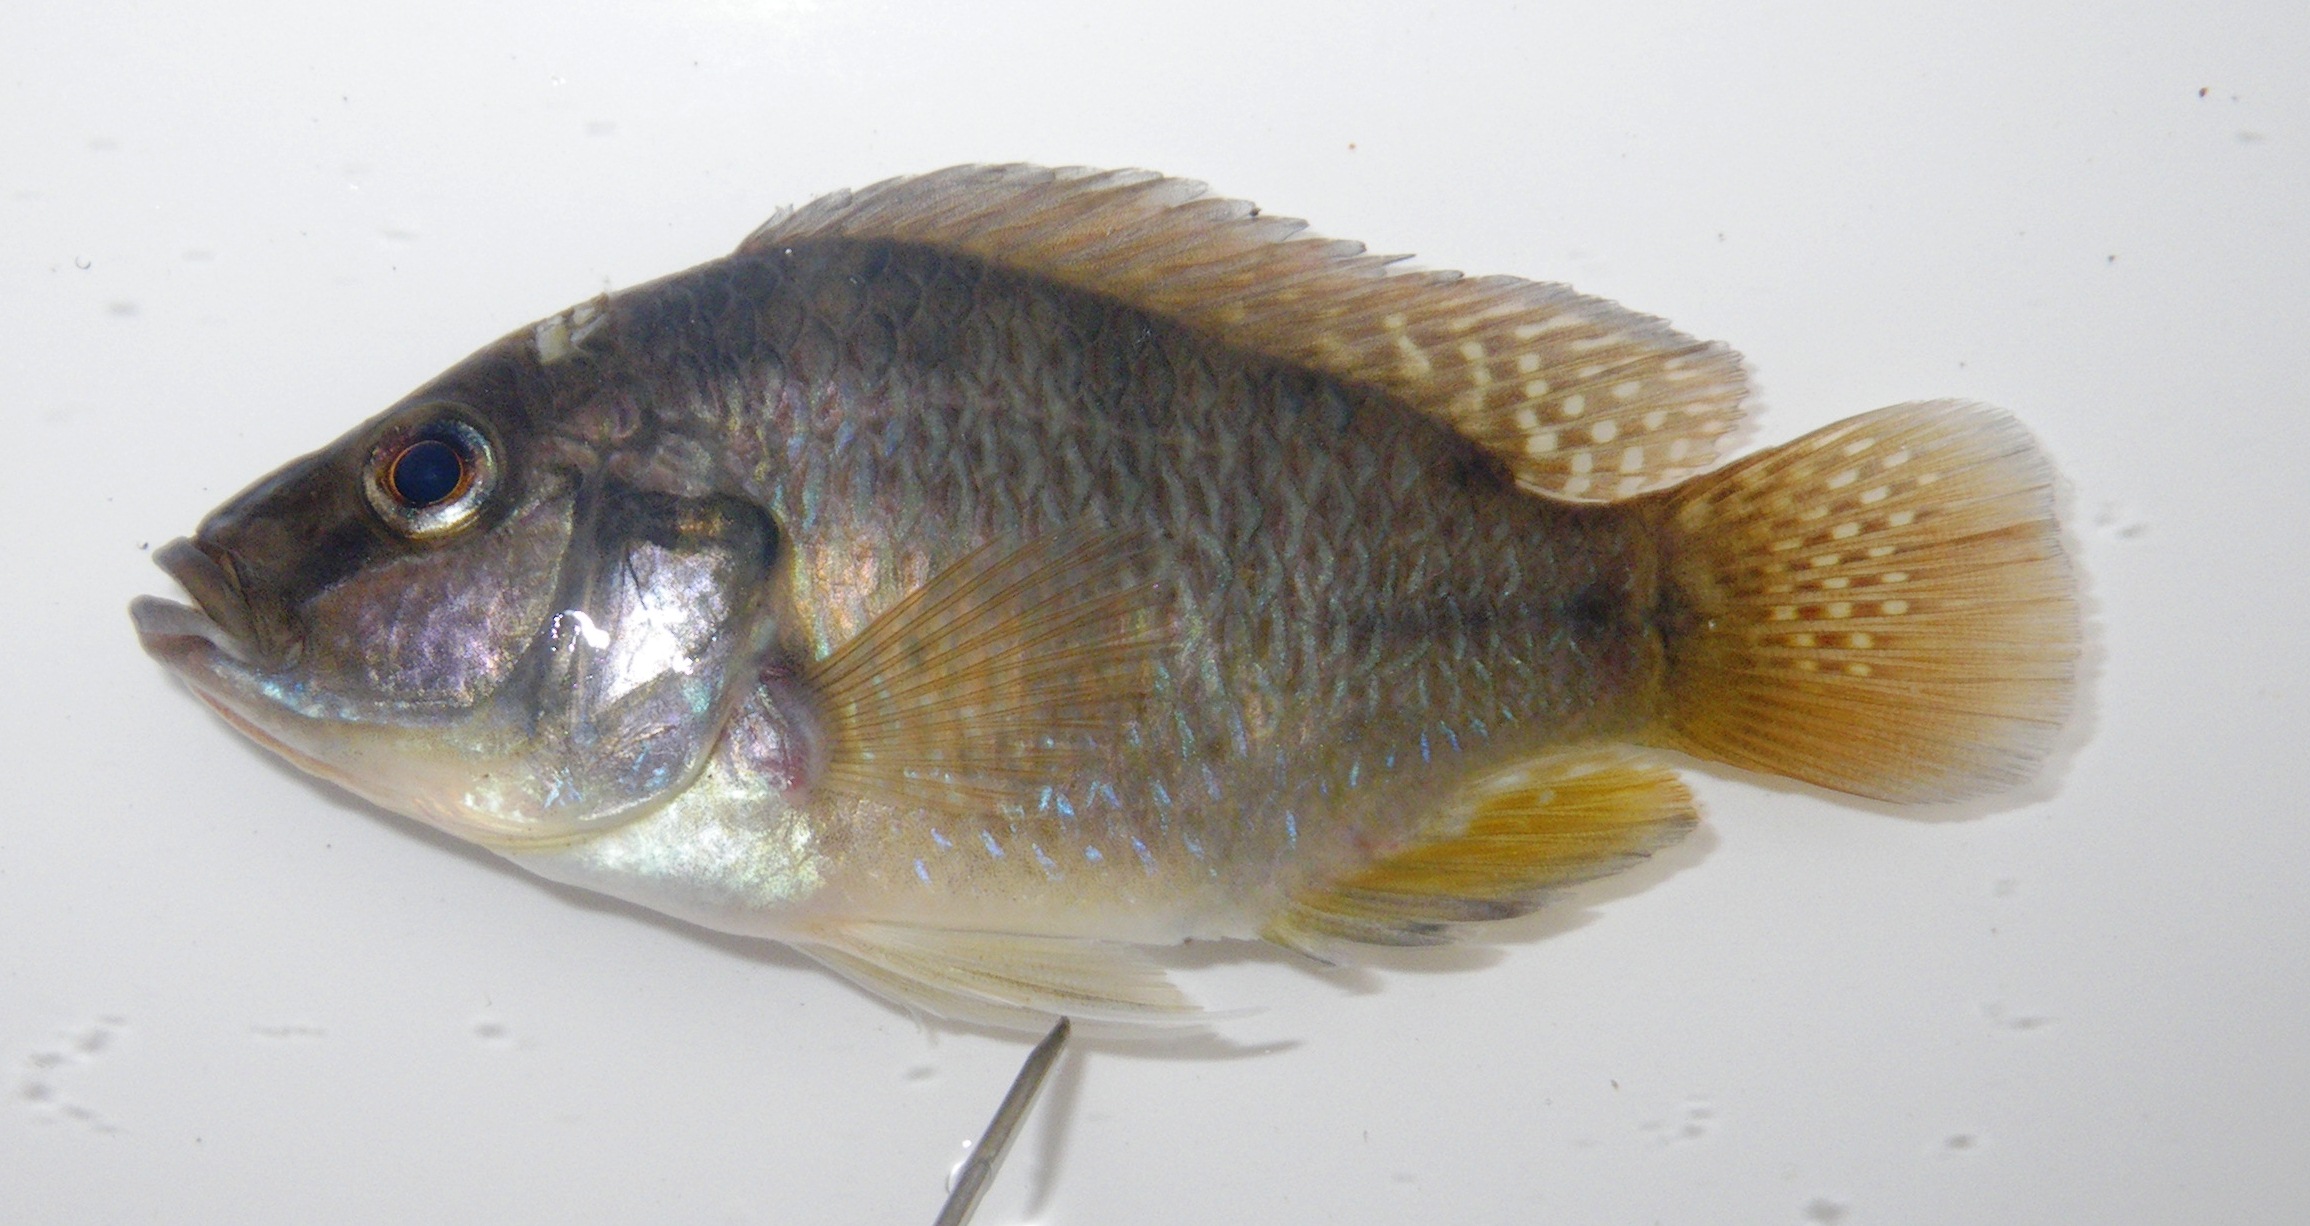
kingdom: Animalia
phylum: Chordata
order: Perciformes
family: Cichlidae
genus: Pseudocrenilabrus
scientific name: Pseudocrenilabrus philander
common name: Southern mouthbrooder
